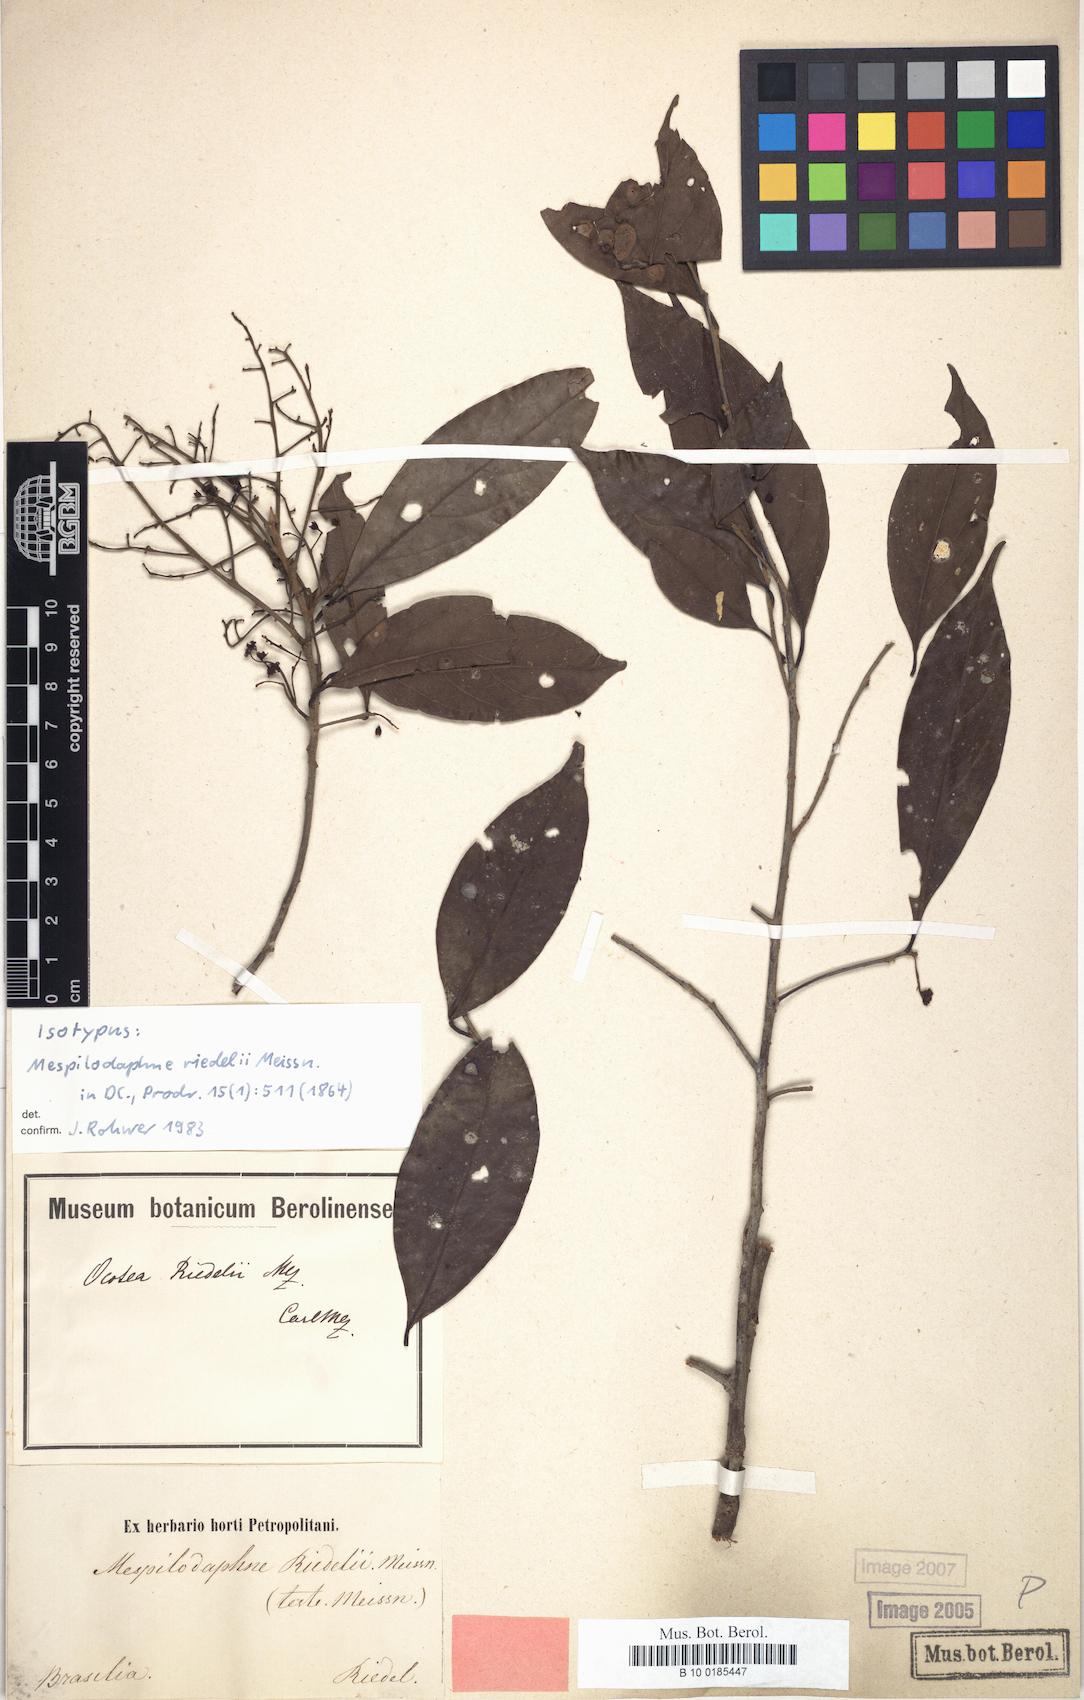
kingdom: Plantae
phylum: Tracheophyta
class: Magnoliopsida
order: Laurales
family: Lauraceae
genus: Ocotea
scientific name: Ocotea dispersa
